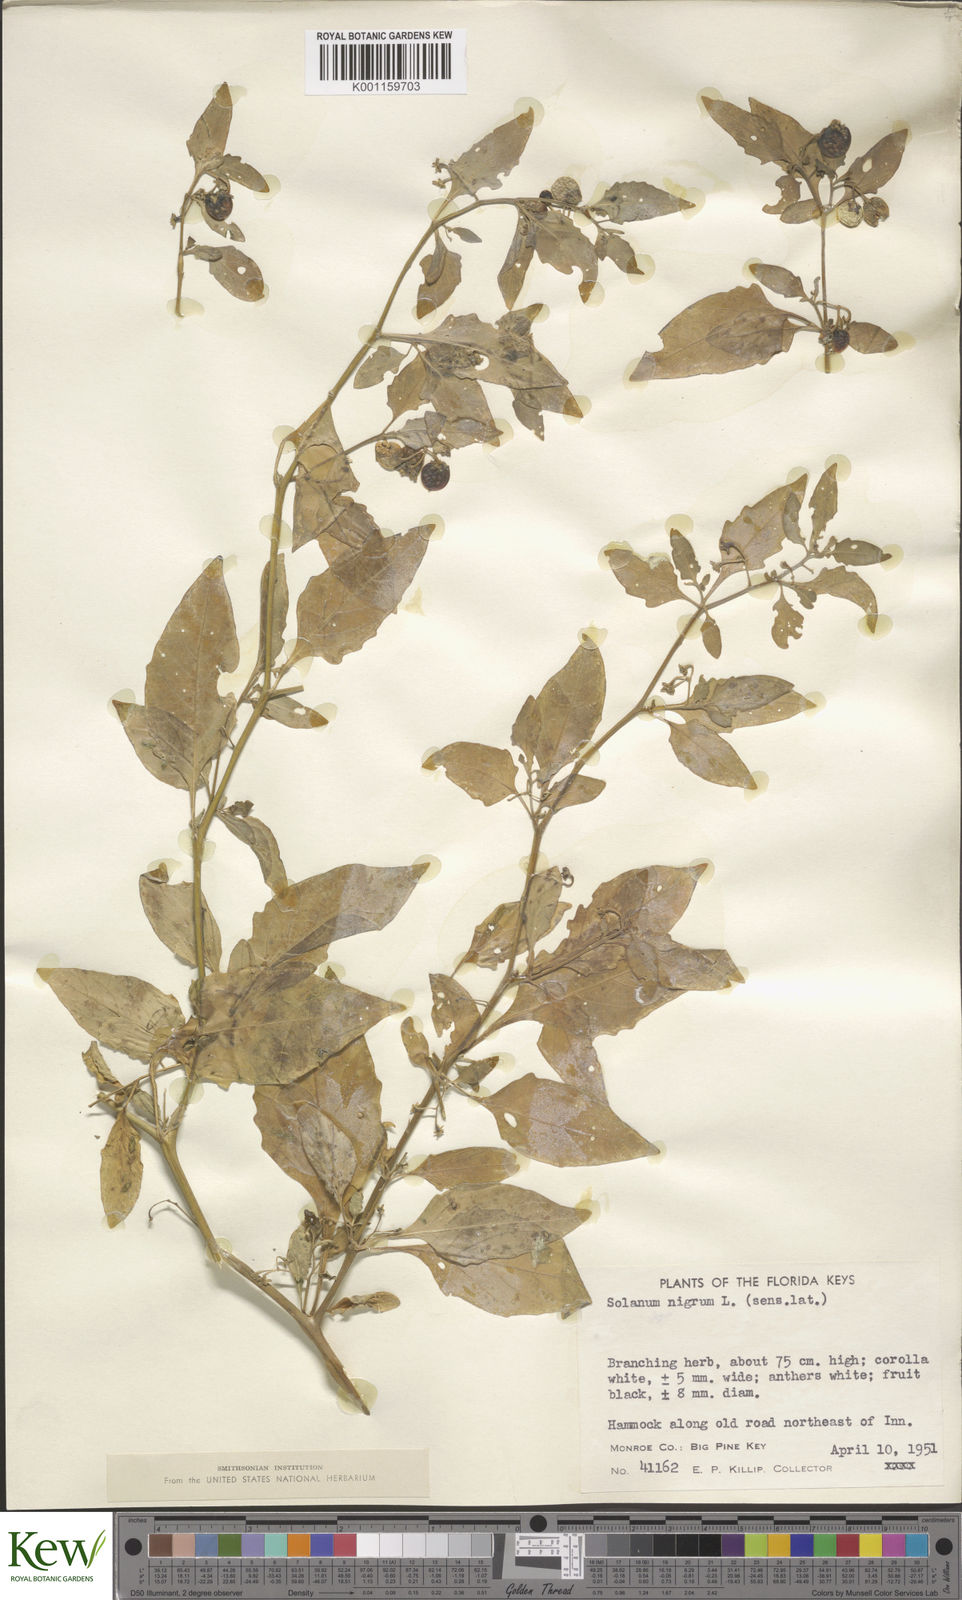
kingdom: Plantae
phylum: Tracheophyta
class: Magnoliopsida
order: Solanales
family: Solanaceae
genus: Solanum
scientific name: Solanum americanum
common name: American black nightshade
